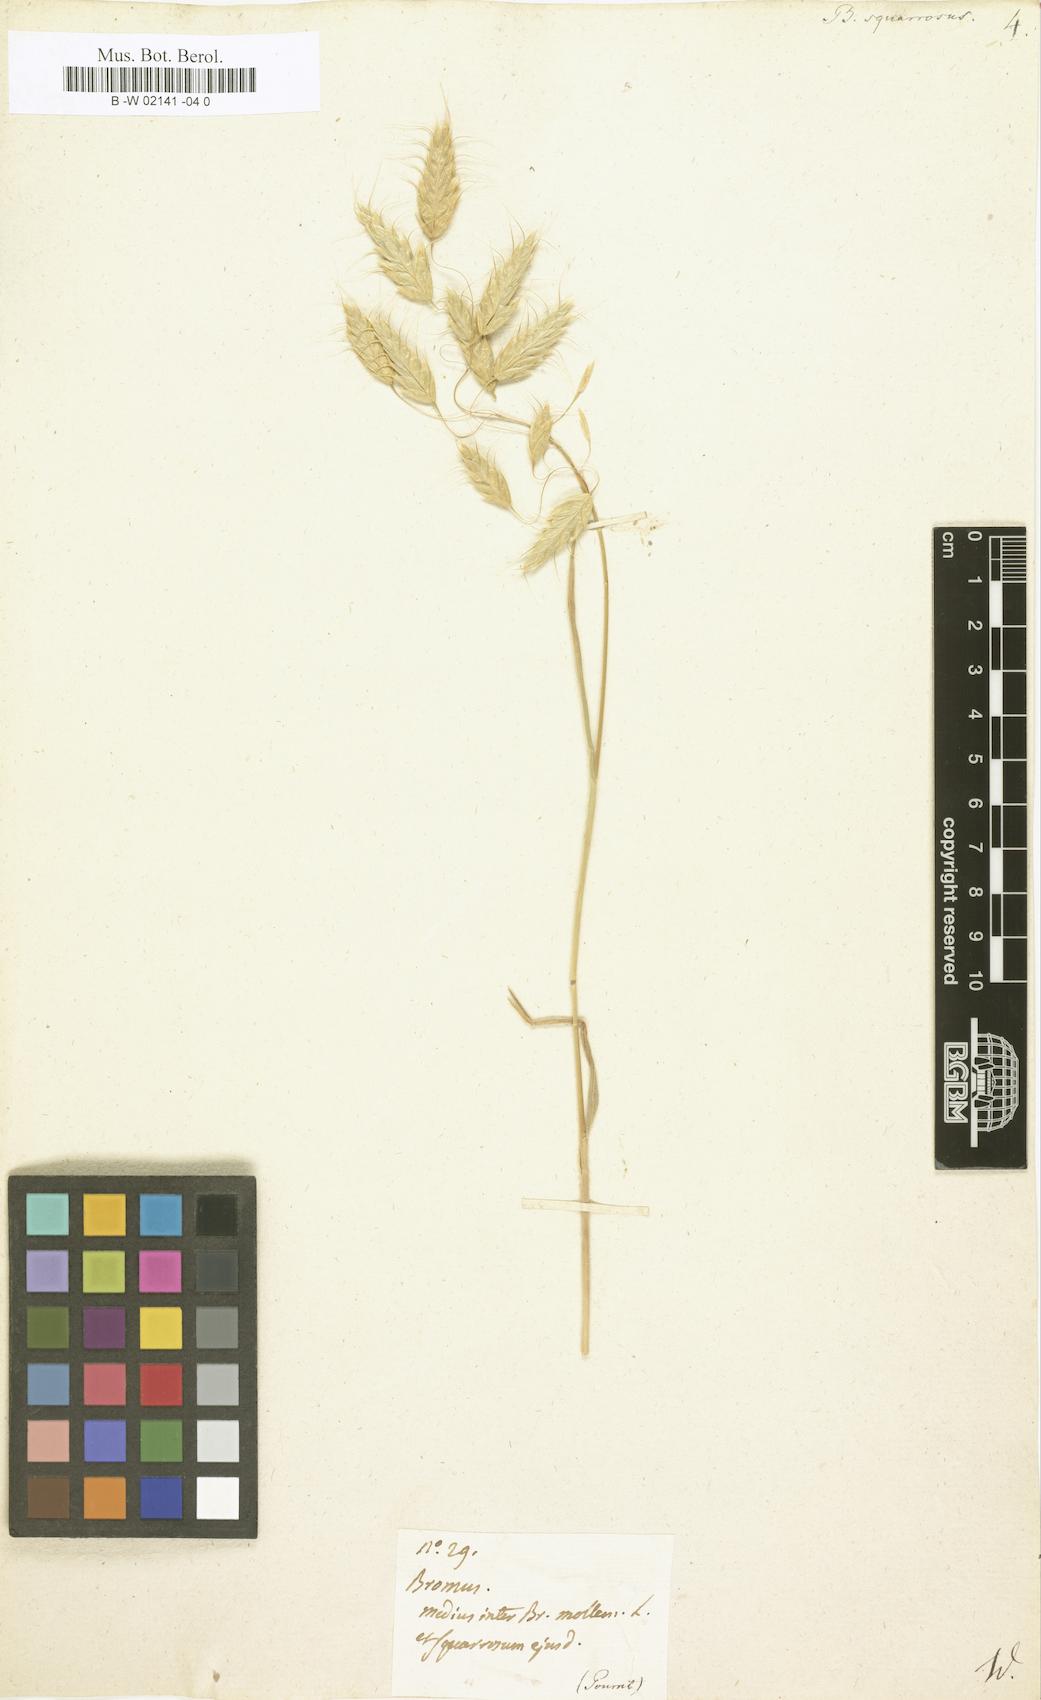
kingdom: Plantae
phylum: Tracheophyta
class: Liliopsida
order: Poales
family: Poaceae
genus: Bromus
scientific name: Bromus squarrosus
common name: Corn brome
